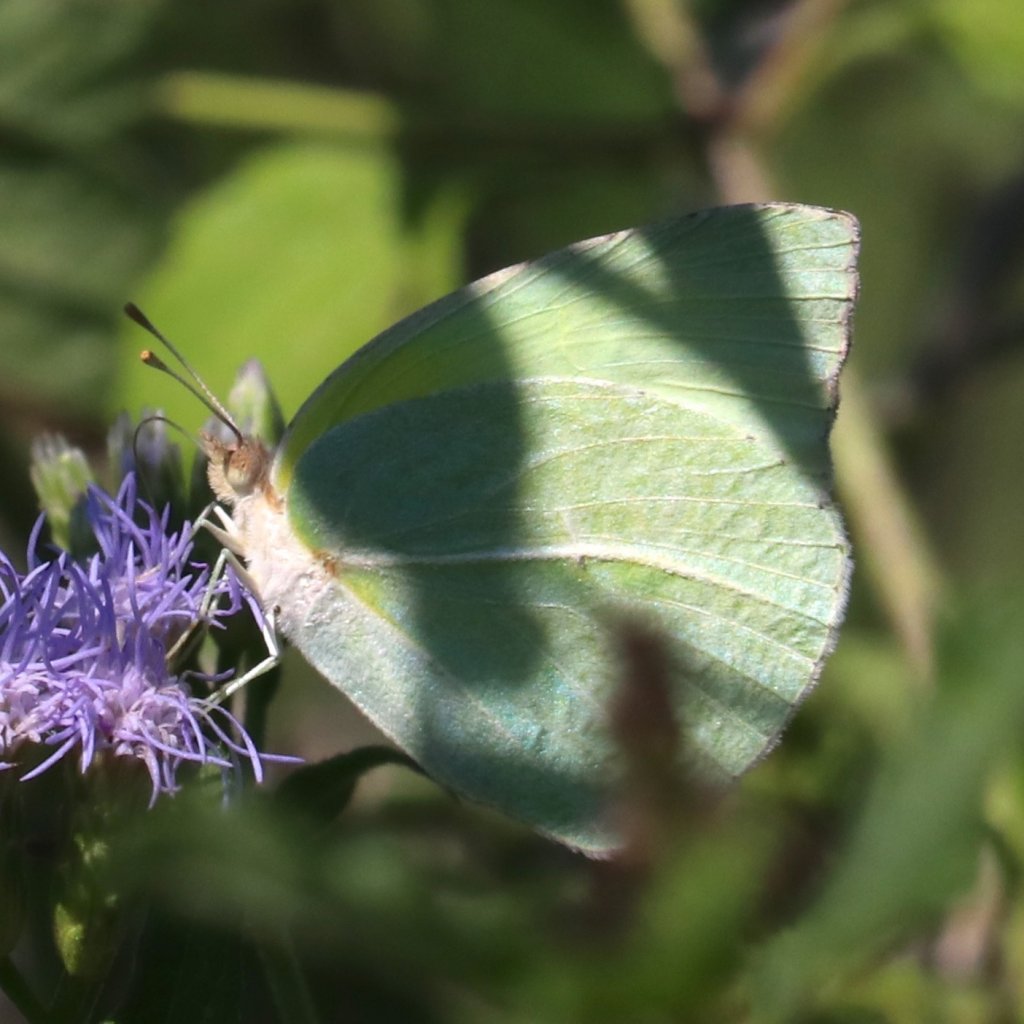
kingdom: Animalia
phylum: Arthropoda
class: Insecta
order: Lepidoptera
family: Pieridae
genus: Kricogonia
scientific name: Kricogonia lyside
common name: Lyside Sulphur
